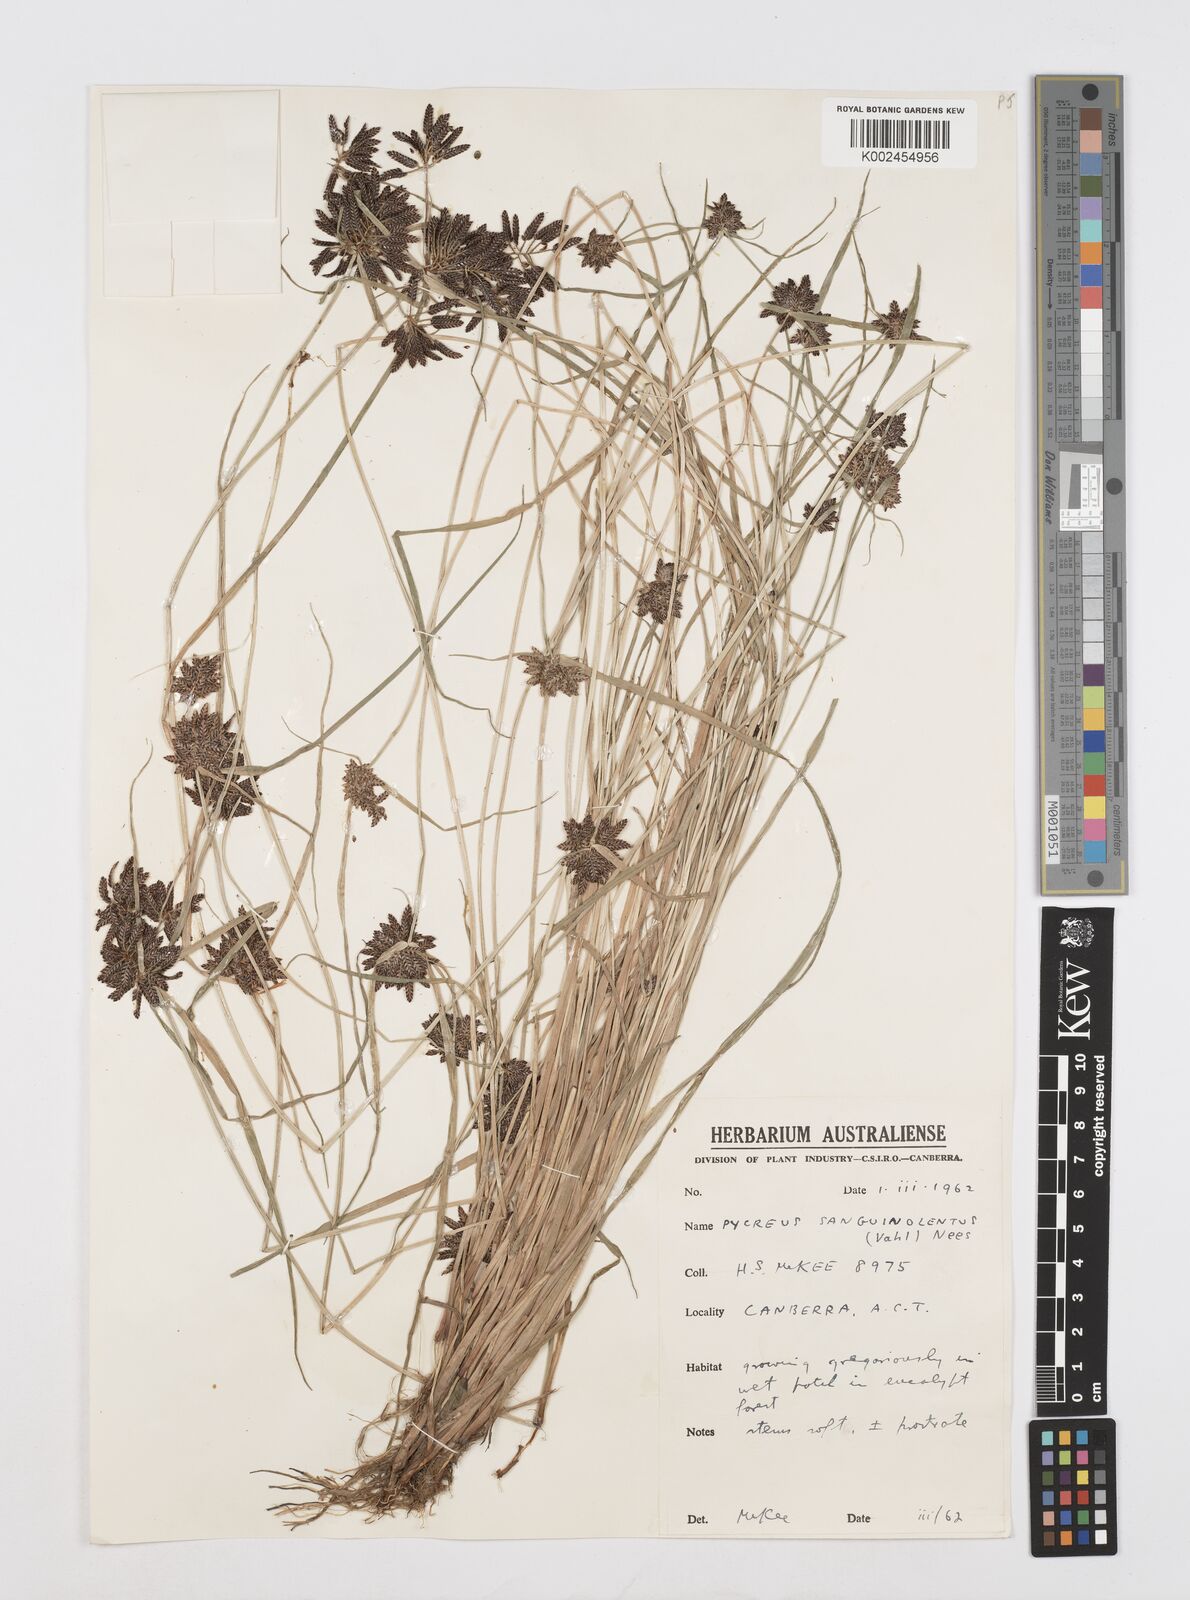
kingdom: Plantae
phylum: Tracheophyta
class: Liliopsida
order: Poales
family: Cyperaceae
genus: Cyperus
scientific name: Cyperus sanguinolentus
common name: Purpleglume flatsedge
